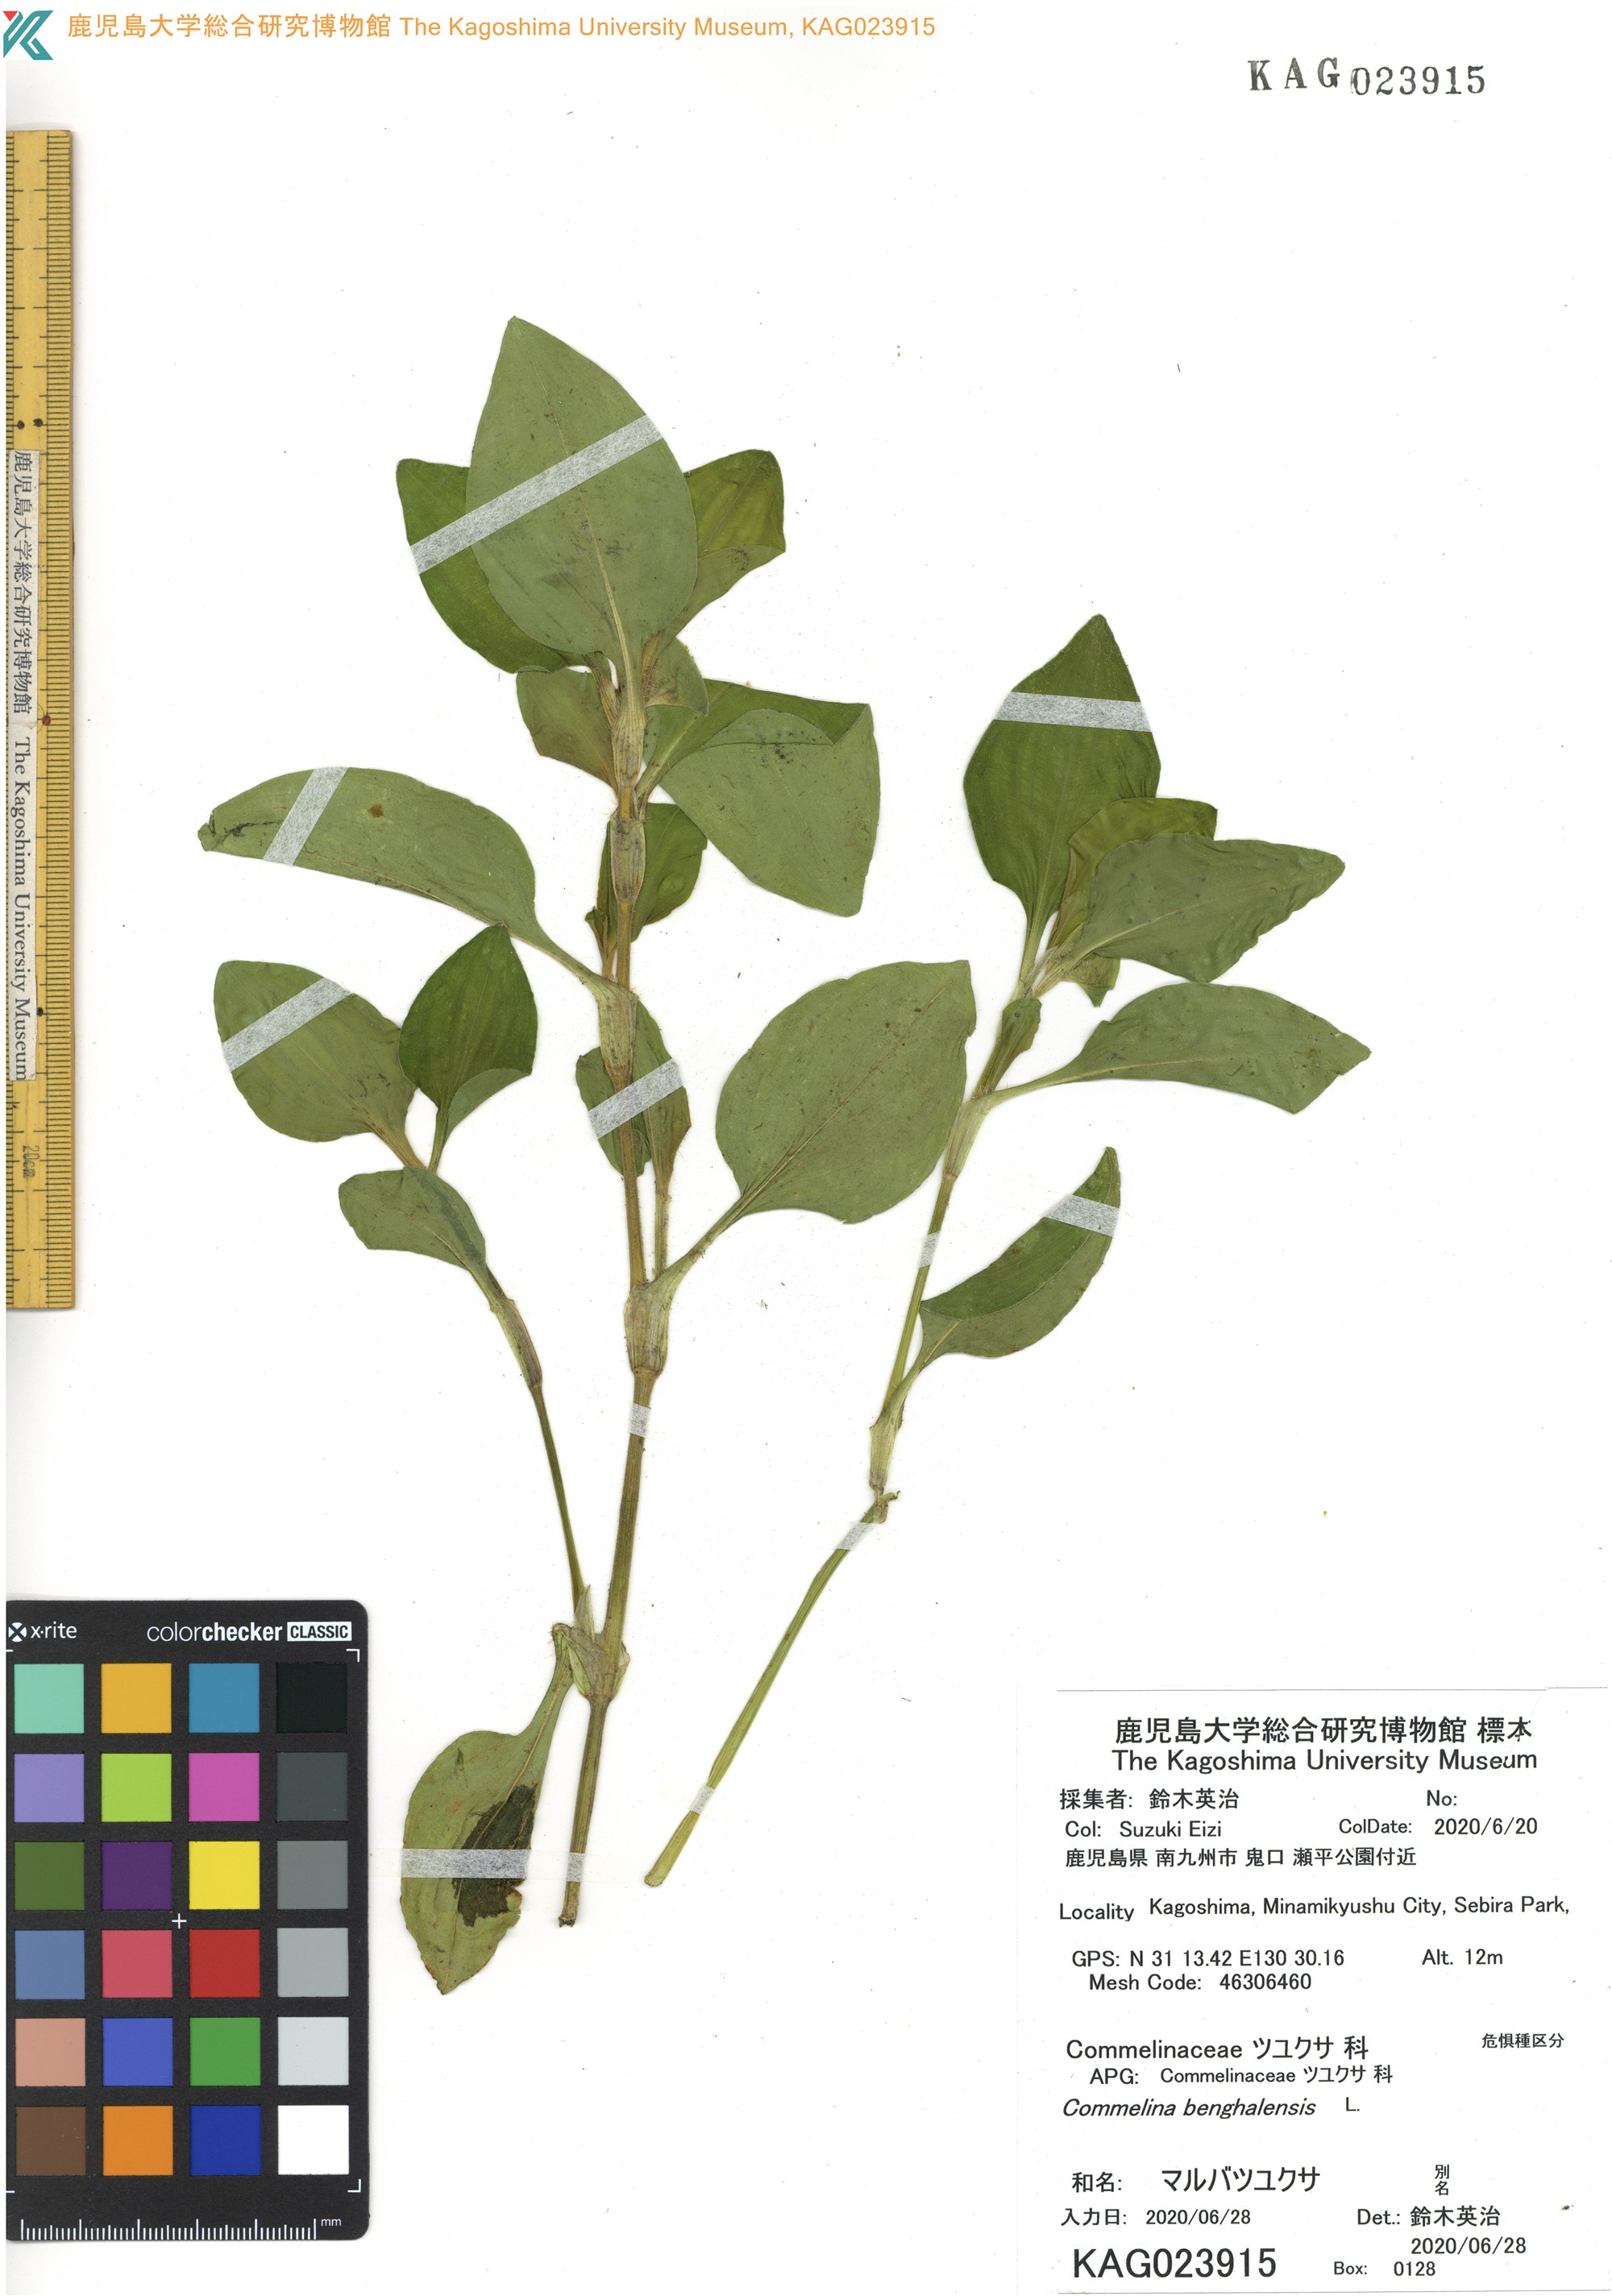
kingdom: Plantae
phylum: Tracheophyta
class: Liliopsida
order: Commelinales
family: Commelinaceae
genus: Commelina
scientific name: Commelina benghalensis
